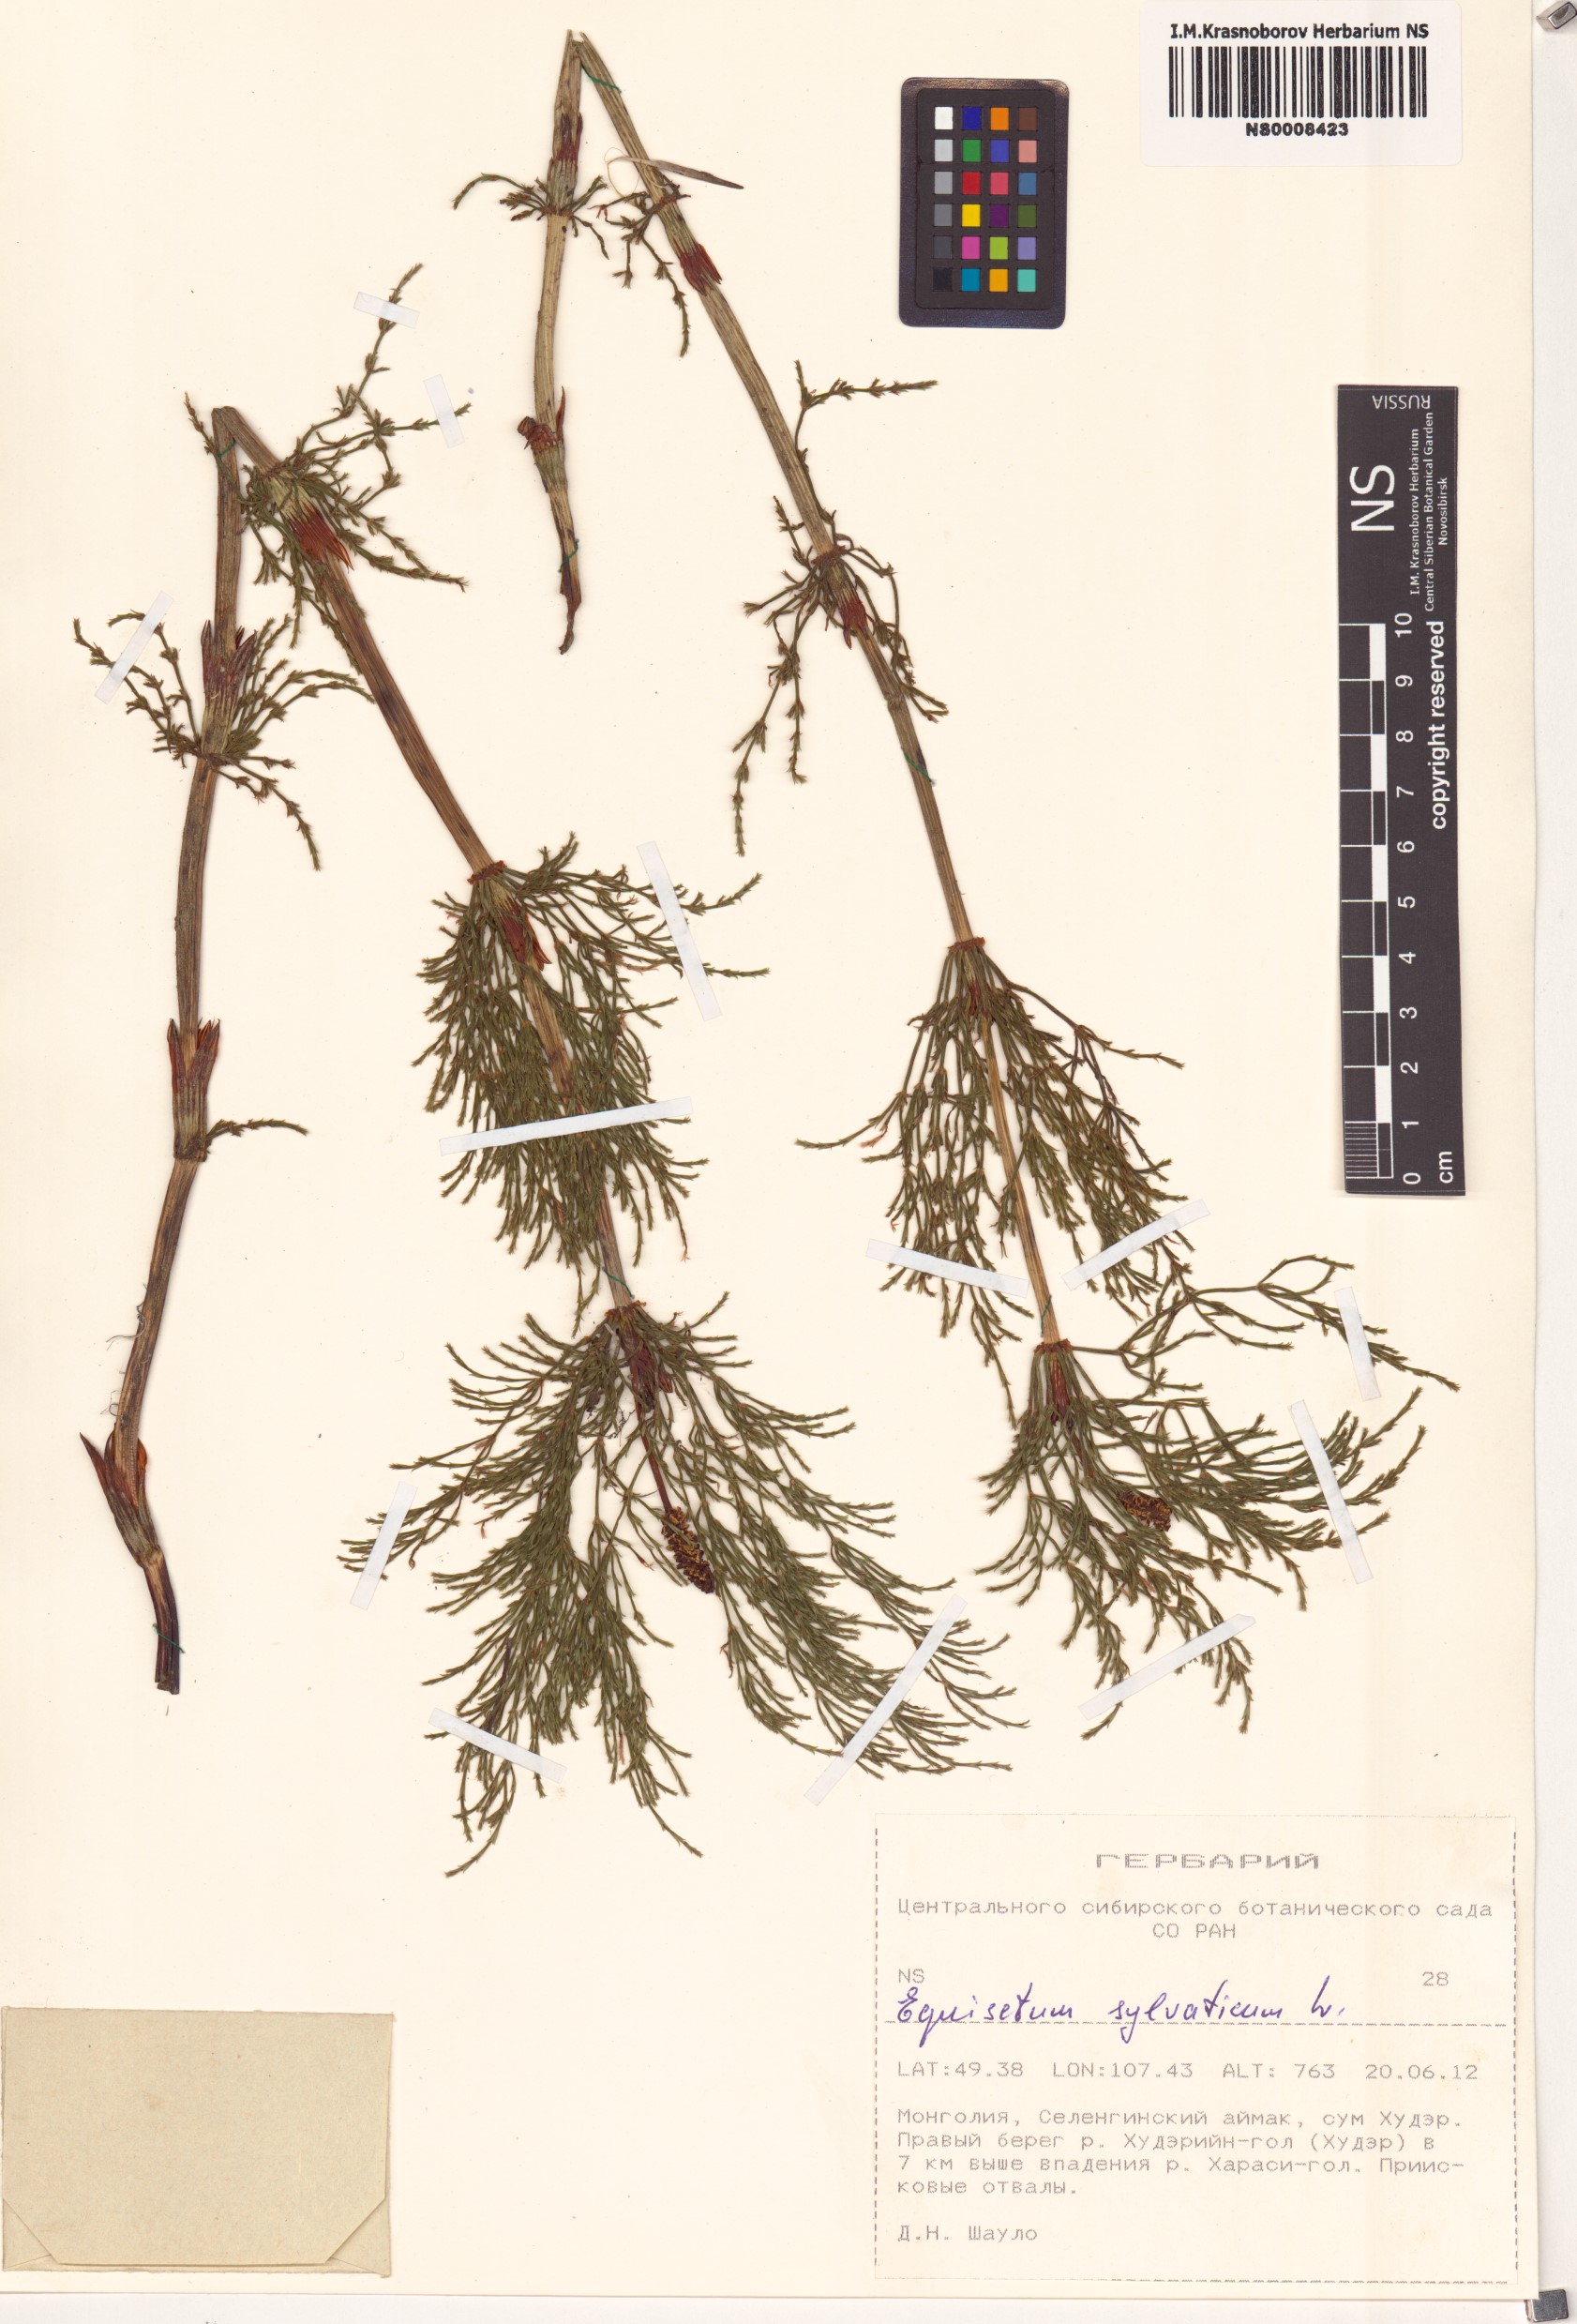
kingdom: Plantae
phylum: Tracheophyta
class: Polypodiopsida
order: Equisetales
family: Equisetaceae
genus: Equisetum
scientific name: Equisetum sylvaticum
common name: Wood horsetail
